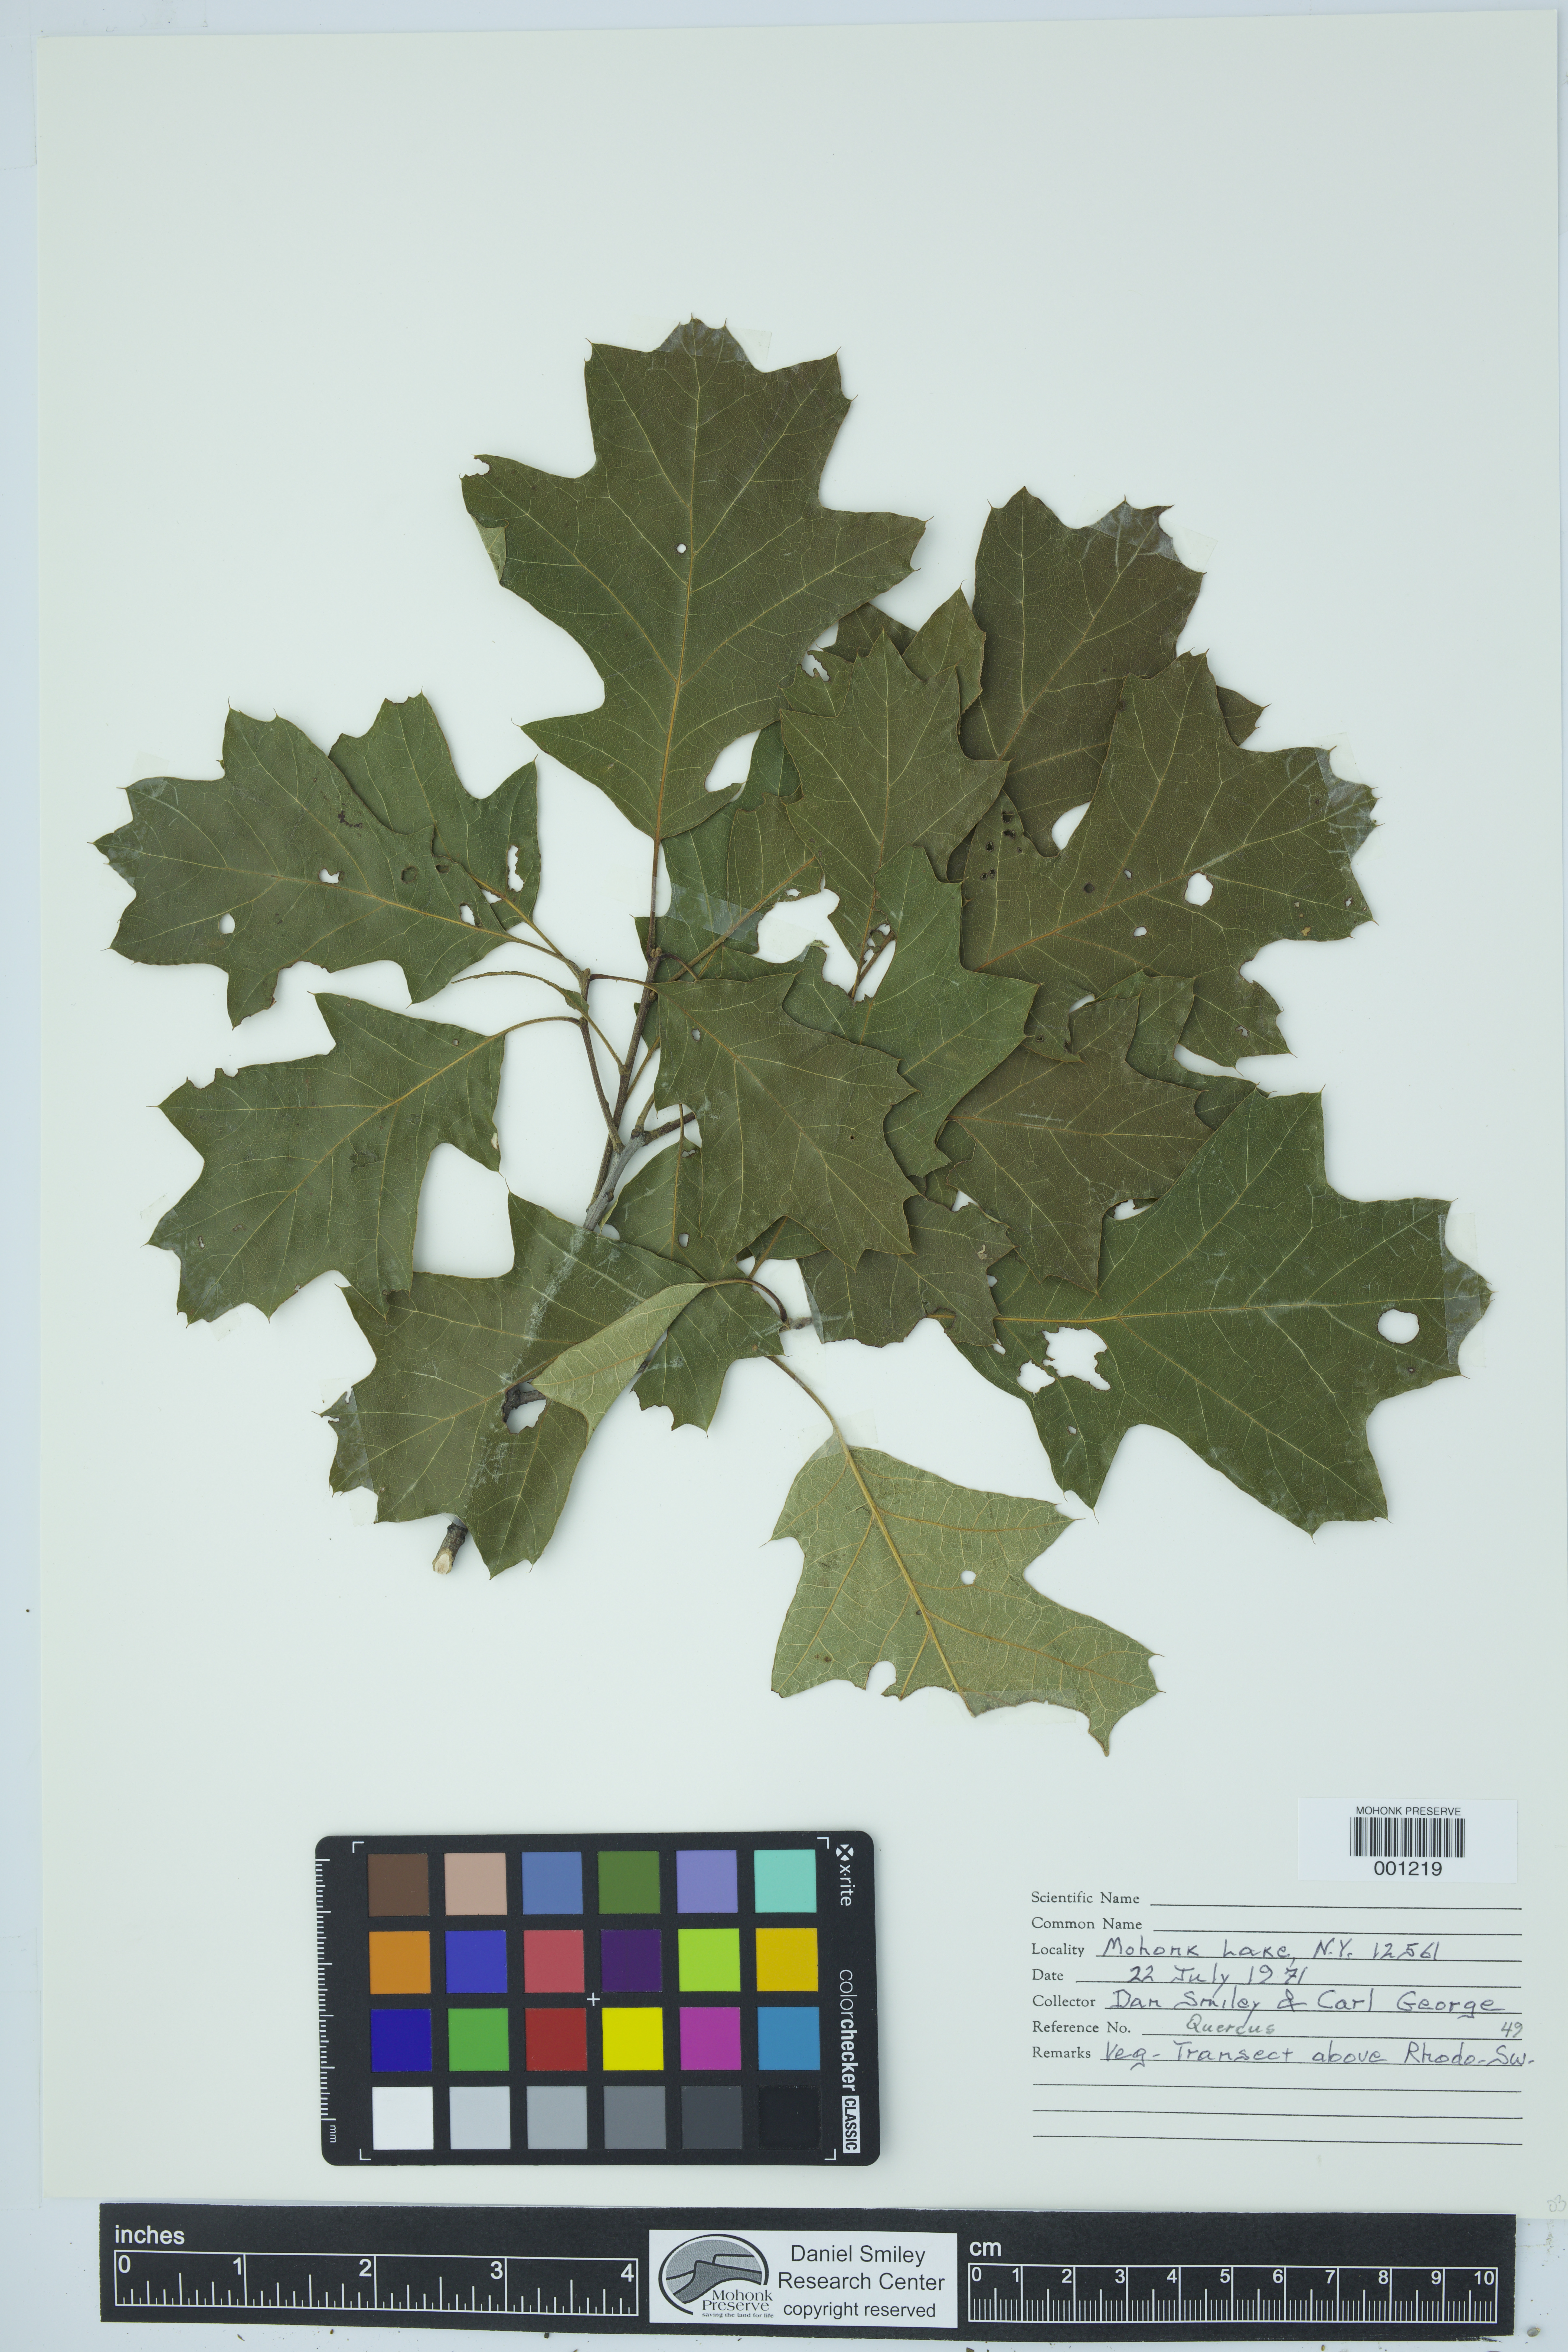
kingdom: Plantae
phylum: Tracheophyta
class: Magnoliopsida
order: Fagales
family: Fagaceae
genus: Quercus
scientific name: Quercus
